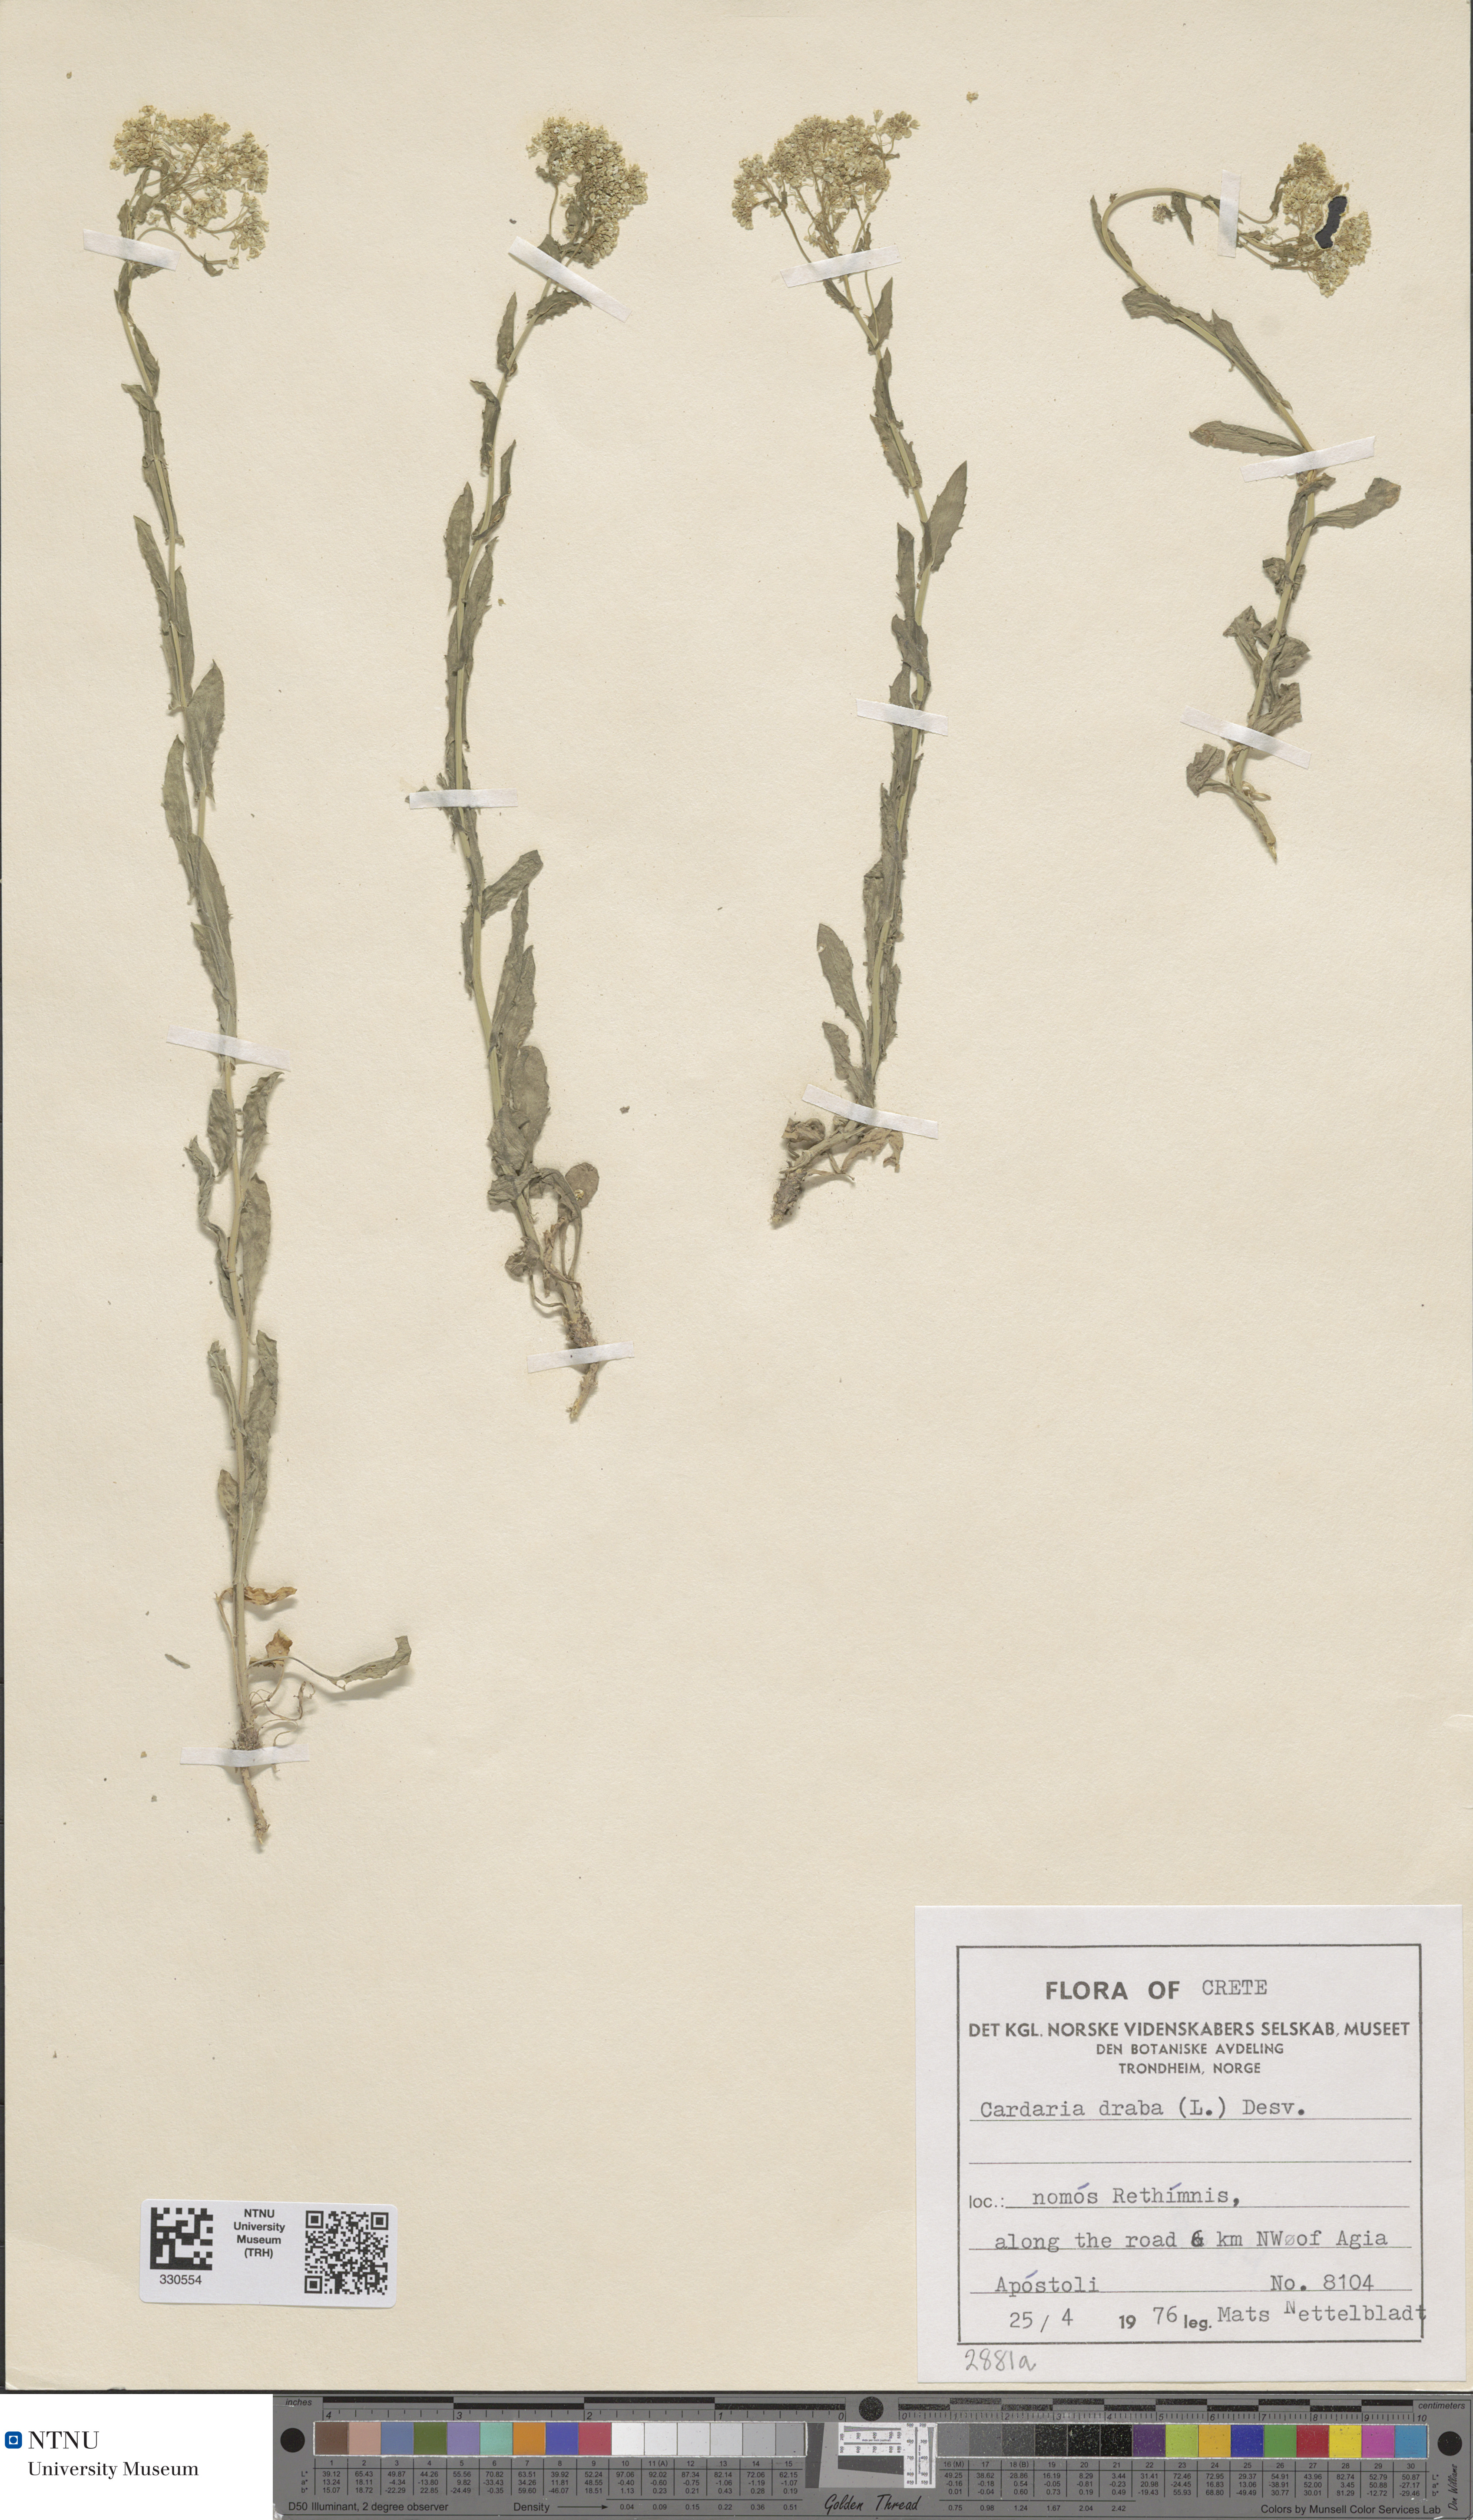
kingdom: Plantae
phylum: Tracheophyta
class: Magnoliopsida
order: Brassicales
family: Brassicaceae
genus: Lepidium
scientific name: Lepidium draba
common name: Hoary cress
